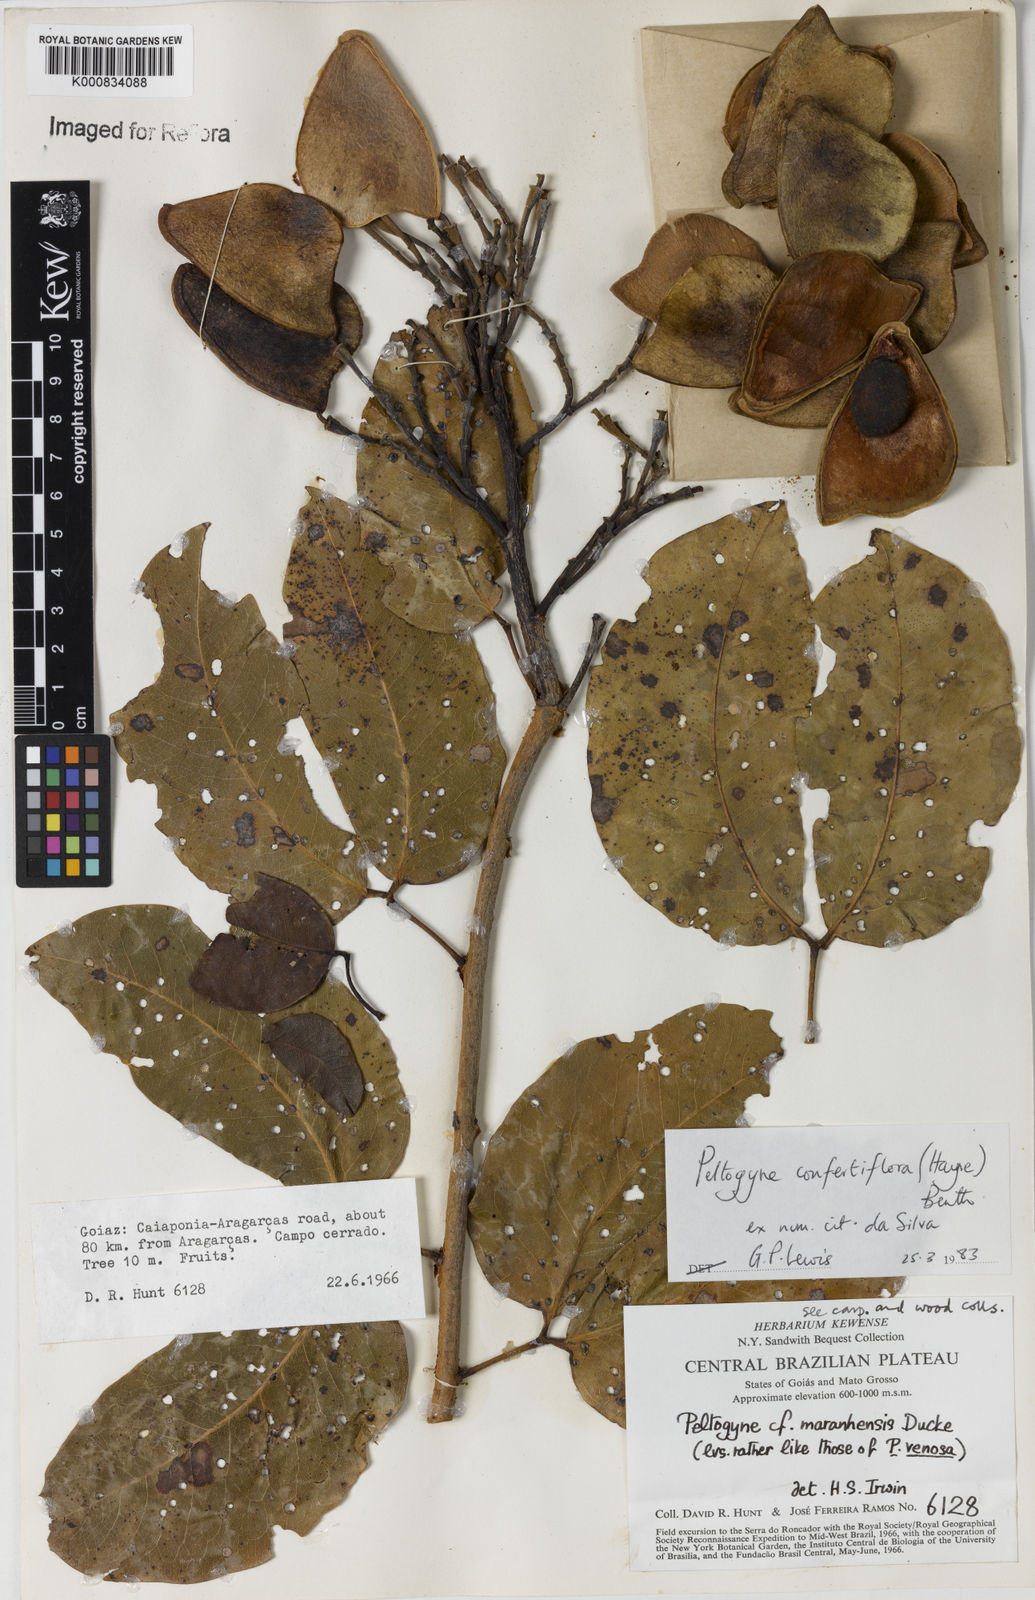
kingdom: Plantae
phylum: Tracheophyta
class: Magnoliopsida
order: Fabales
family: Fabaceae
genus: Peltogyne
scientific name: Peltogyne confertiflora
